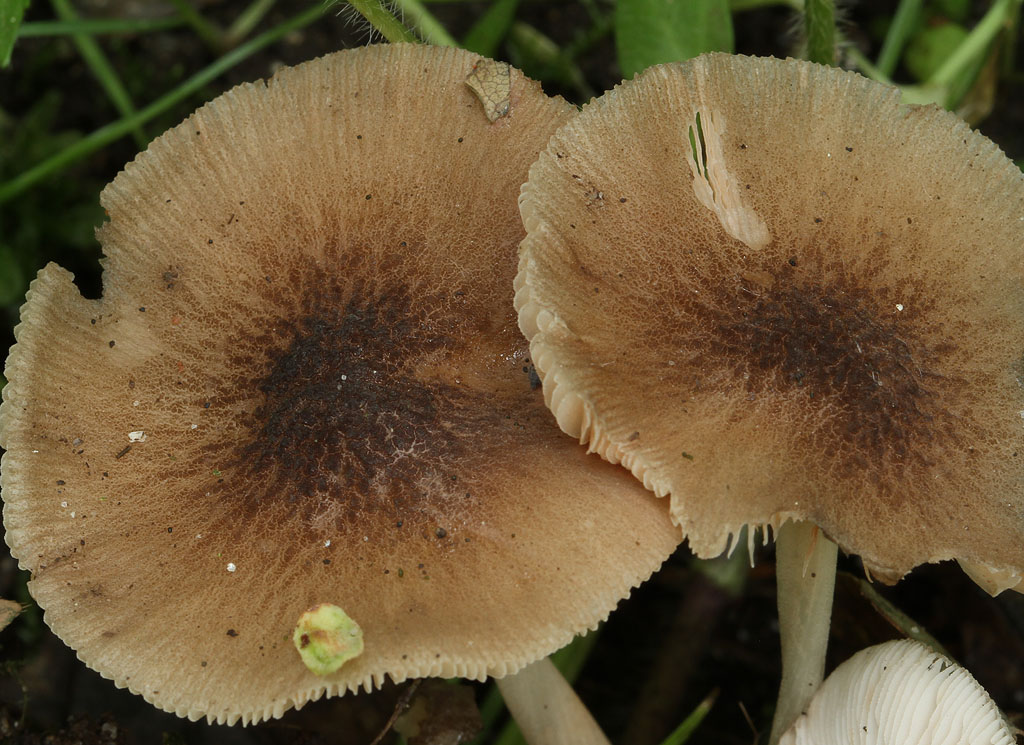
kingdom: Fungi
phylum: Basidiomycota
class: Agaricomycetes
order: Agaricales
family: Pluteaceae
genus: Pluteus
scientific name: Pluteus plautus
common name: kornet skærmhat
